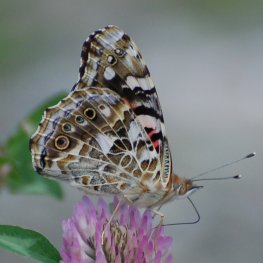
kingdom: Animalia
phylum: Arthropoda
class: Insecta
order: Lepidoptera
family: Nymphalidae
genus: Vanessa
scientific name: Vanessa cardui
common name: Painted Lady
